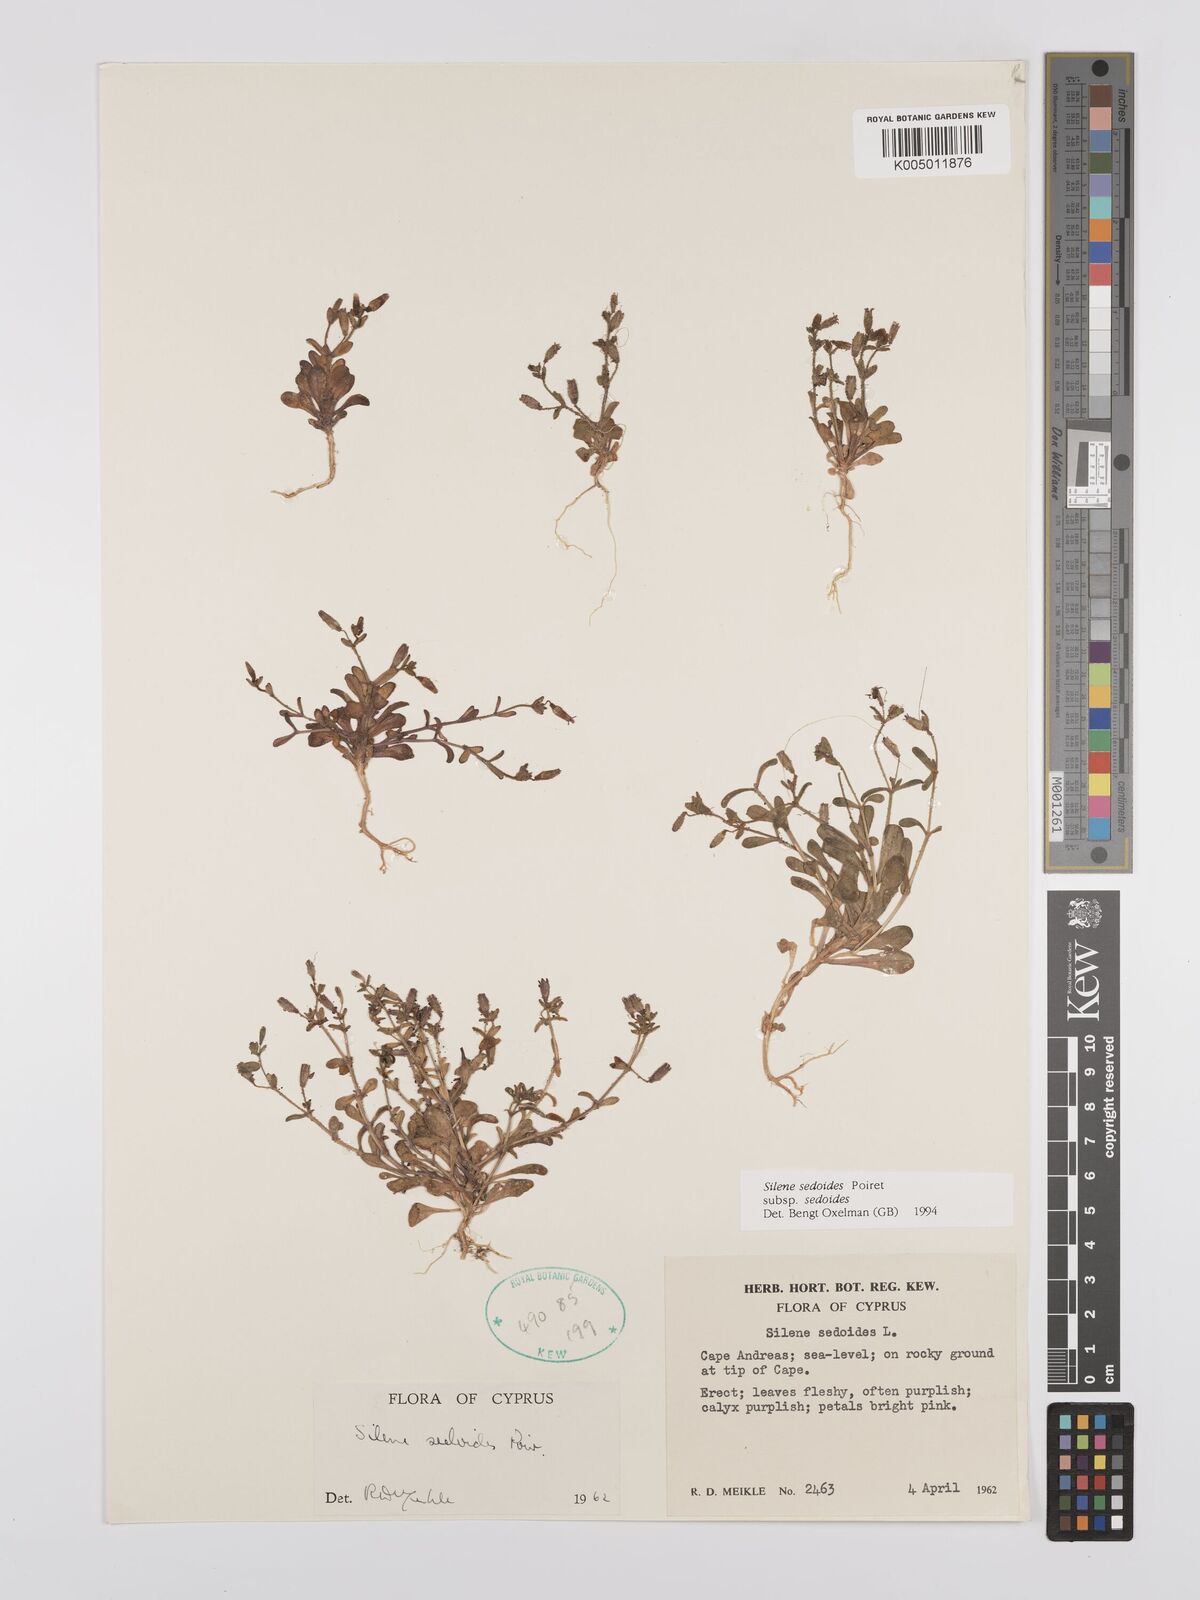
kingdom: Plantae
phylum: Tracheophyta
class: Magnoliopsida
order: Caryophyllales
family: Caryophyllaceae
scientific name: Caryophyllaceae
